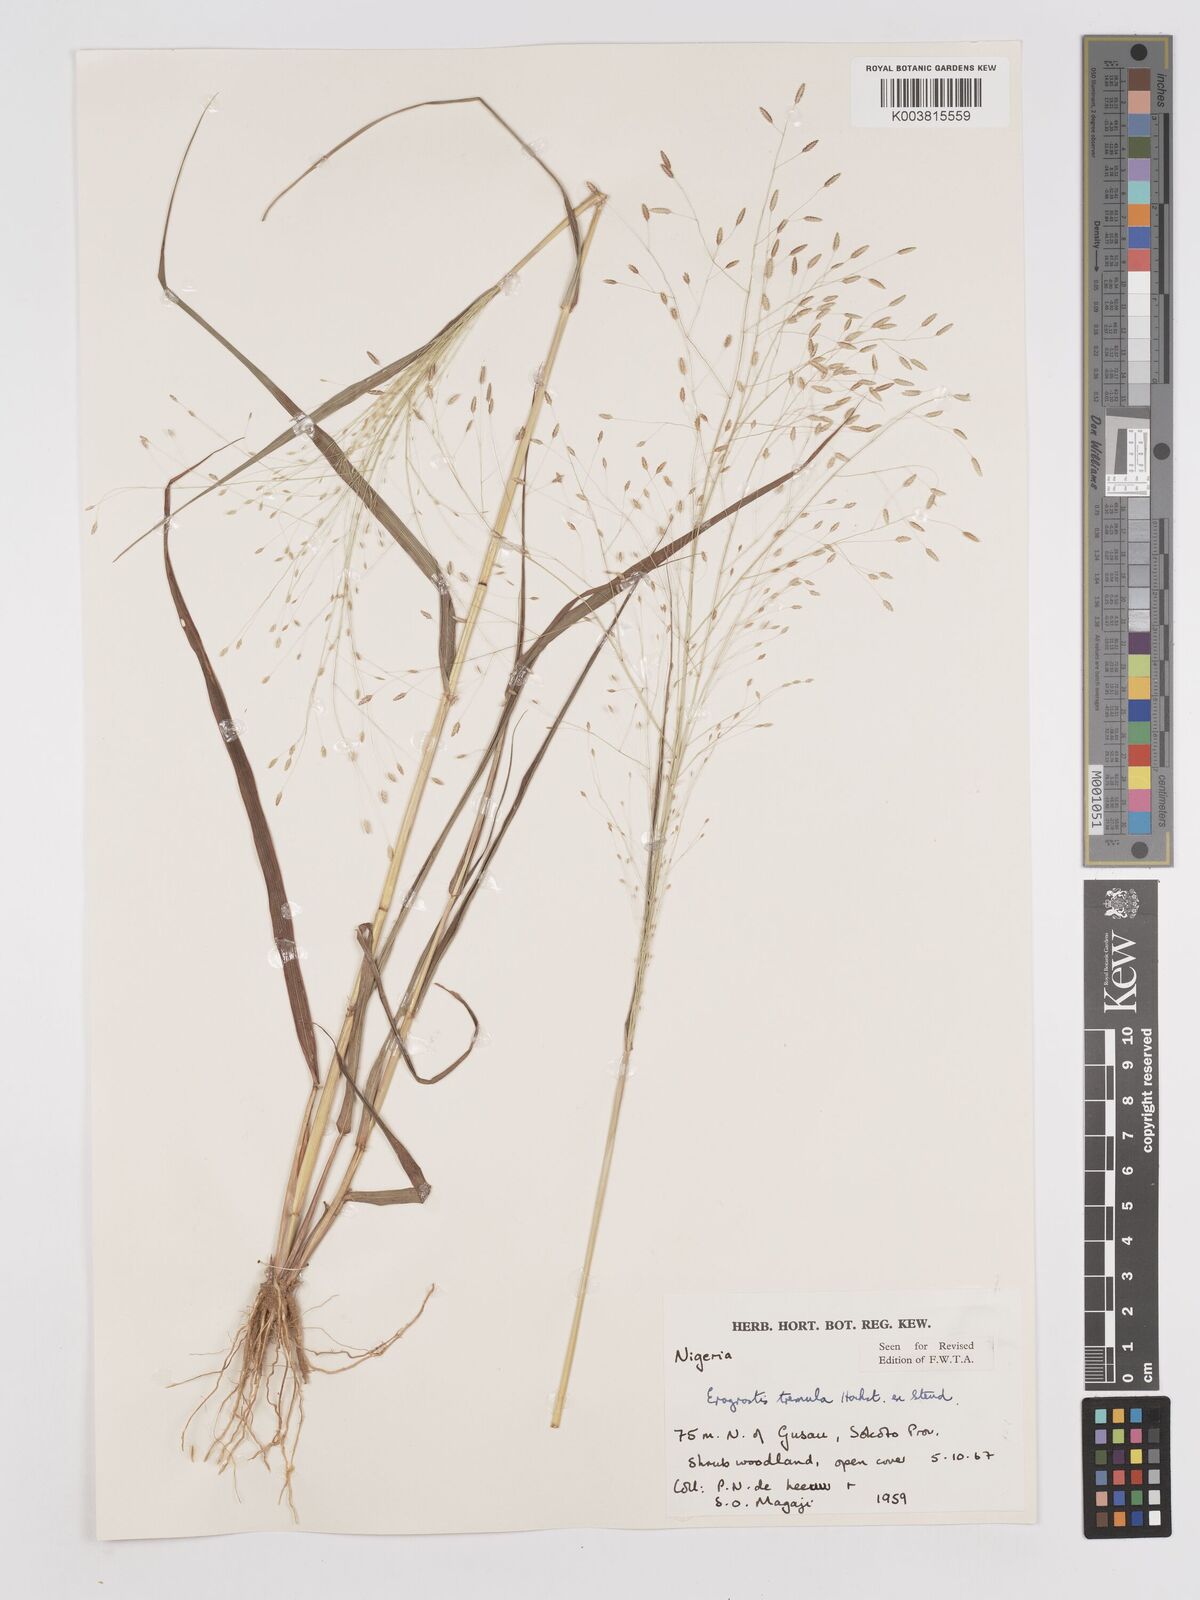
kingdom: Plantae
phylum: Tracheophyta
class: Liliopsida
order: Poales
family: Poaceae
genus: Eragrostis
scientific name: Eragrostis tremula
